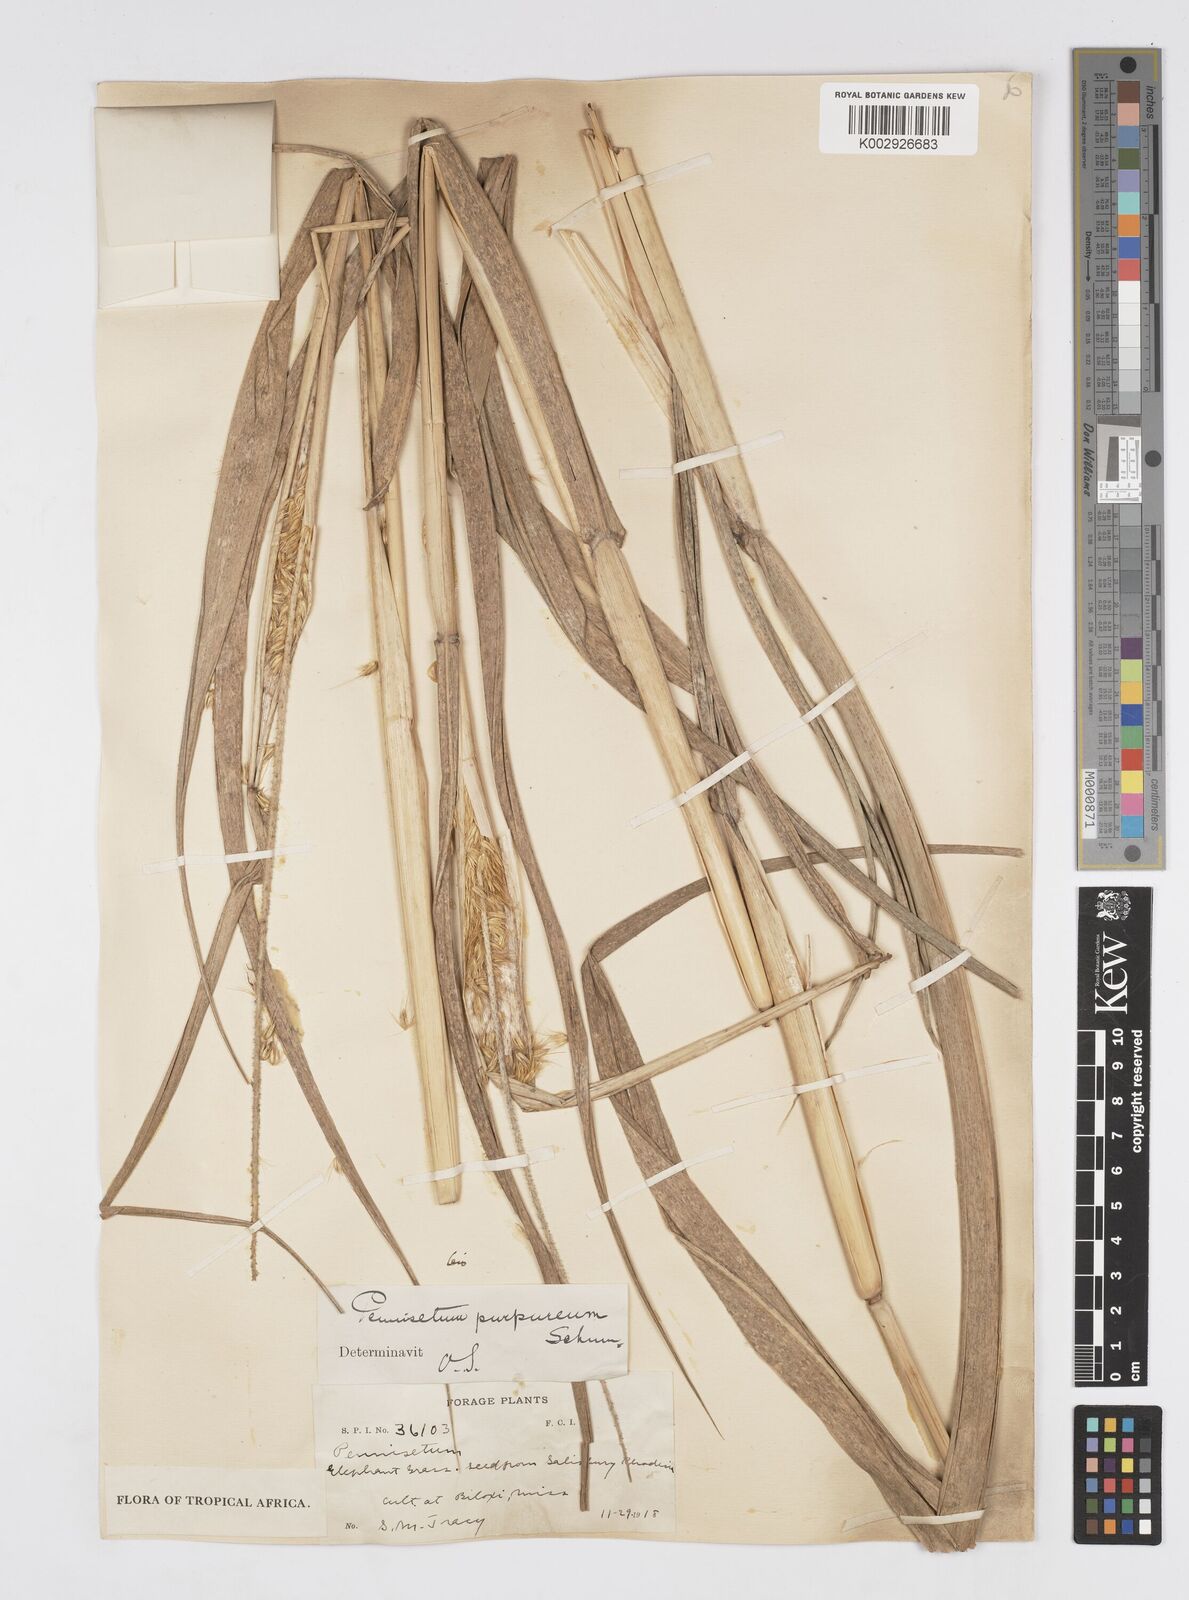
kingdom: Plantae
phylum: Tracheophyta
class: Liliopsida
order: Poales
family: Poaceae
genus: Cenchrus
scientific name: Cenchrus purpureus
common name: Elephant grass
